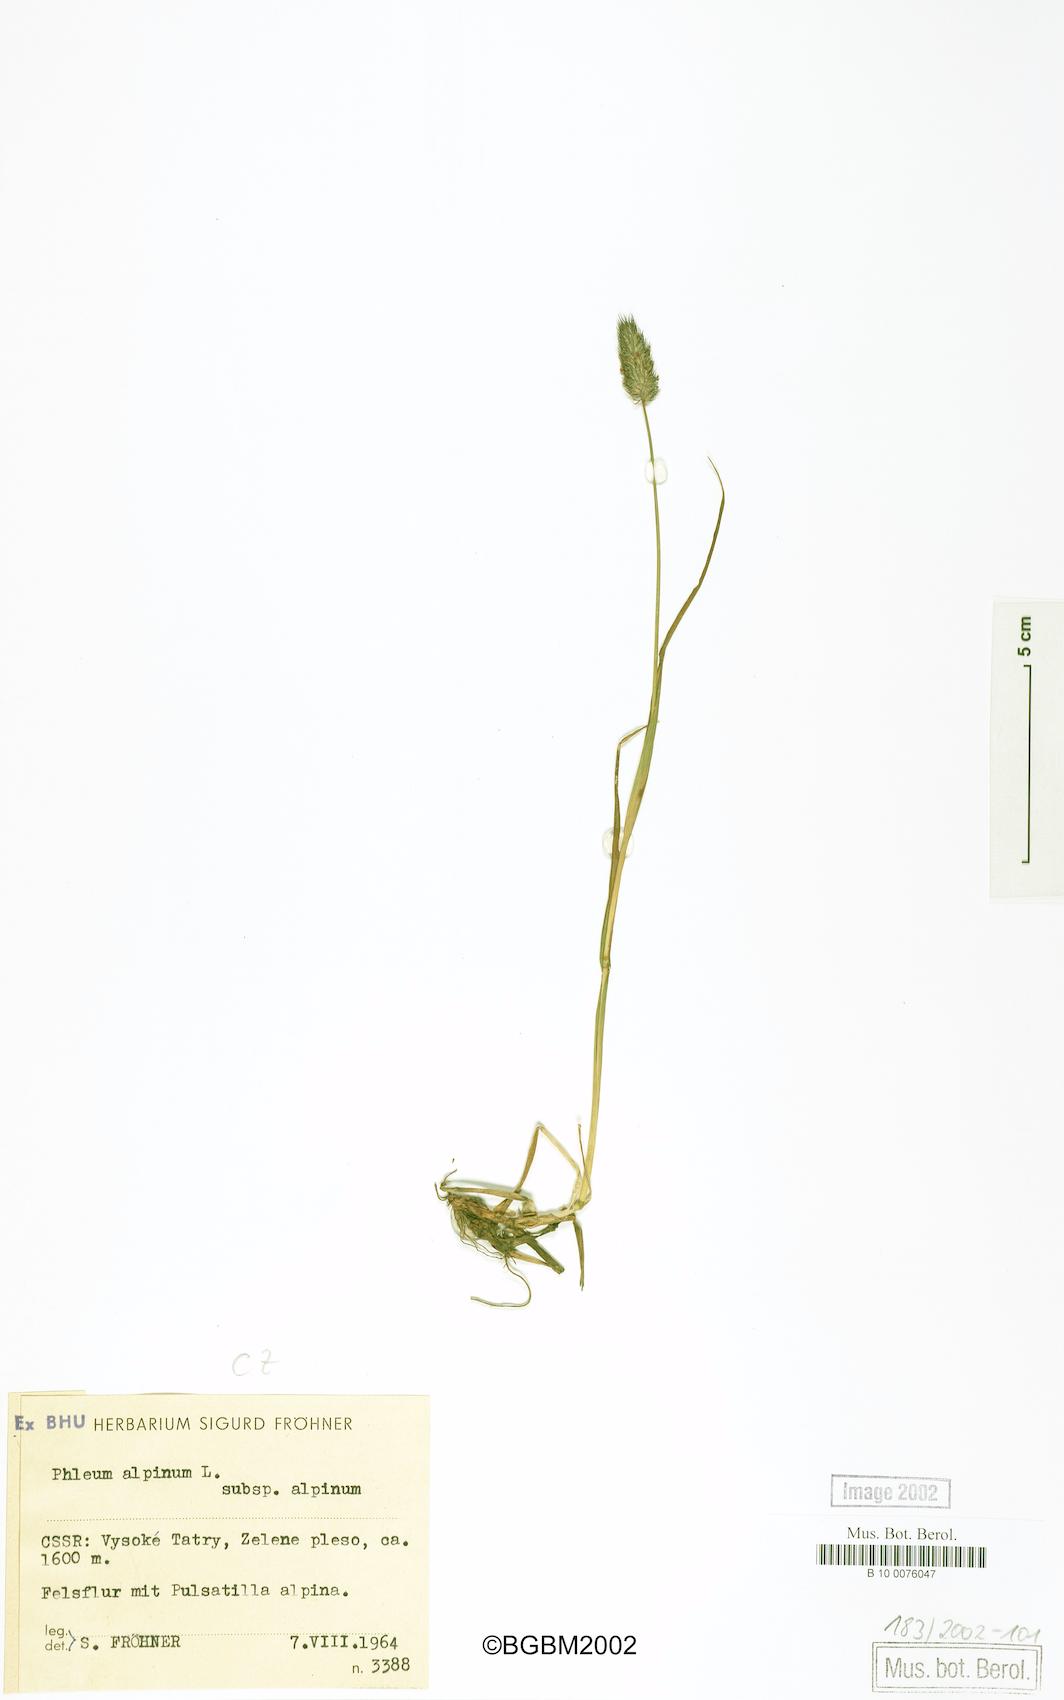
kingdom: Plantae
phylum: Tracheophyta
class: Liliopsida
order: Poales
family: Poaceae
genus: Phleum
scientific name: Phleum alpinum
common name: Alpine cat's-tail
